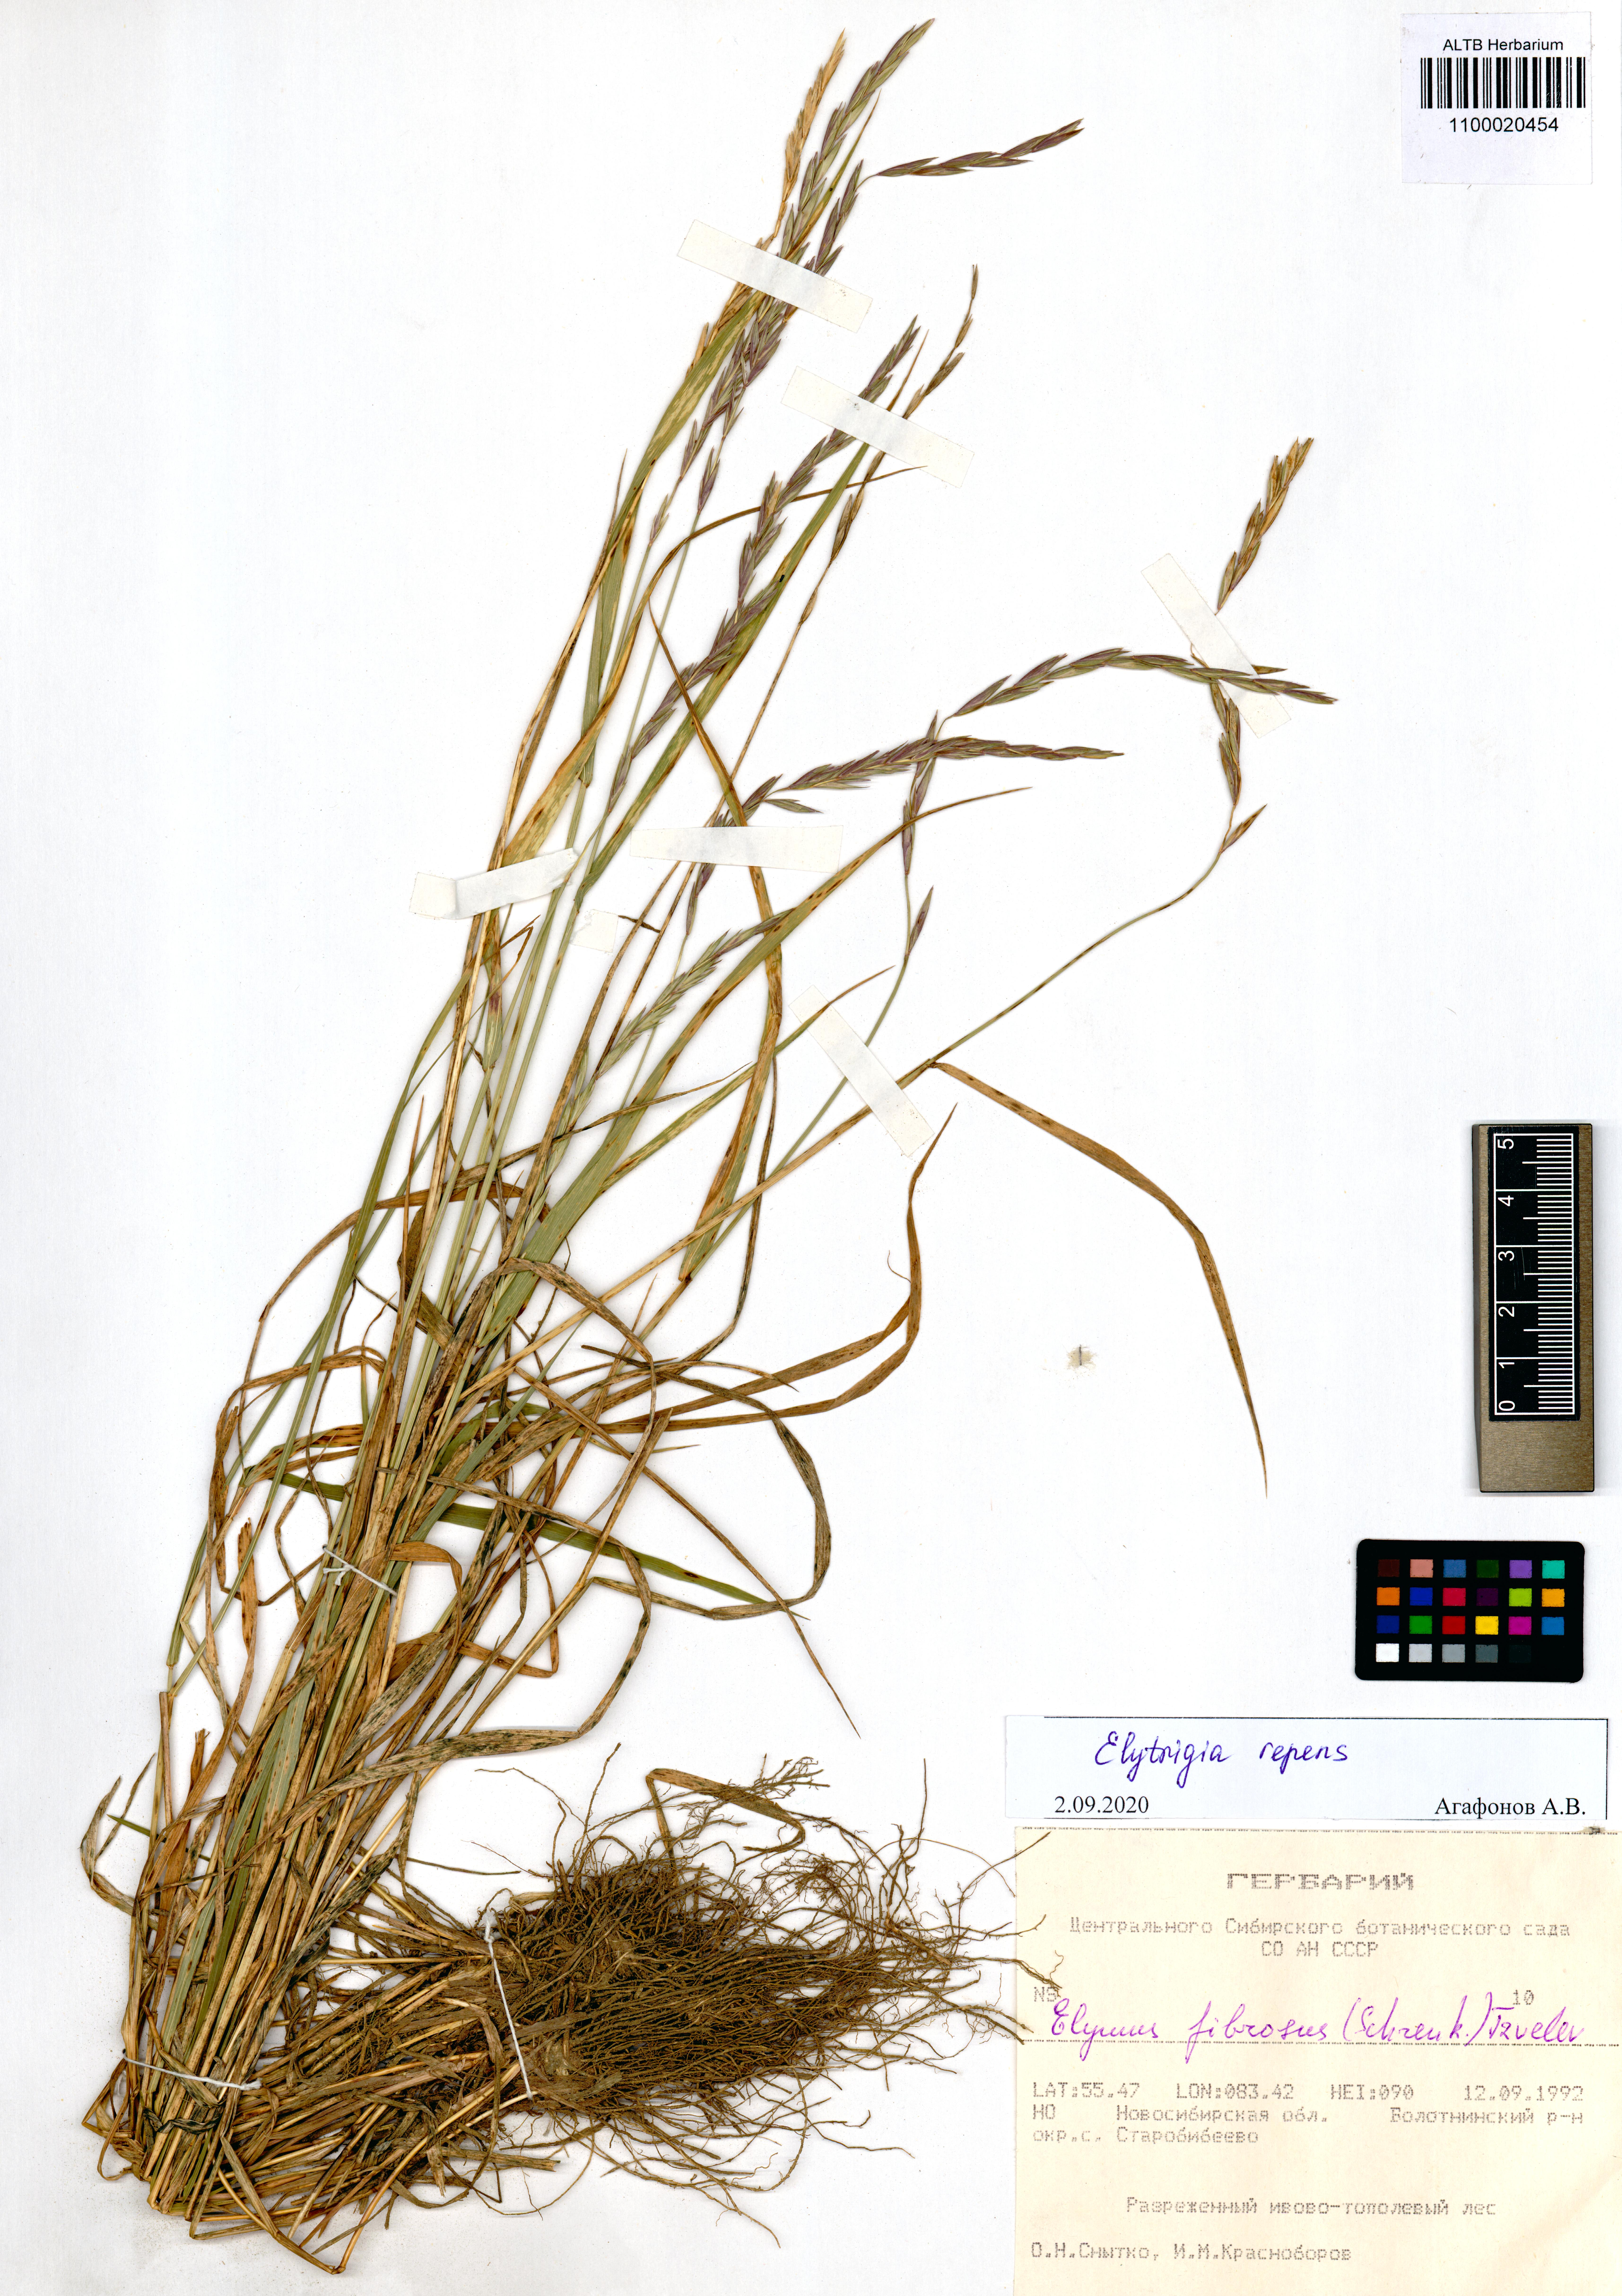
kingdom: Plantae
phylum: Tracheophyta
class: Liliopsida
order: Poales
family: Poaceae
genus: Elymus
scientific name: Elymus repens
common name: Quackgrass
